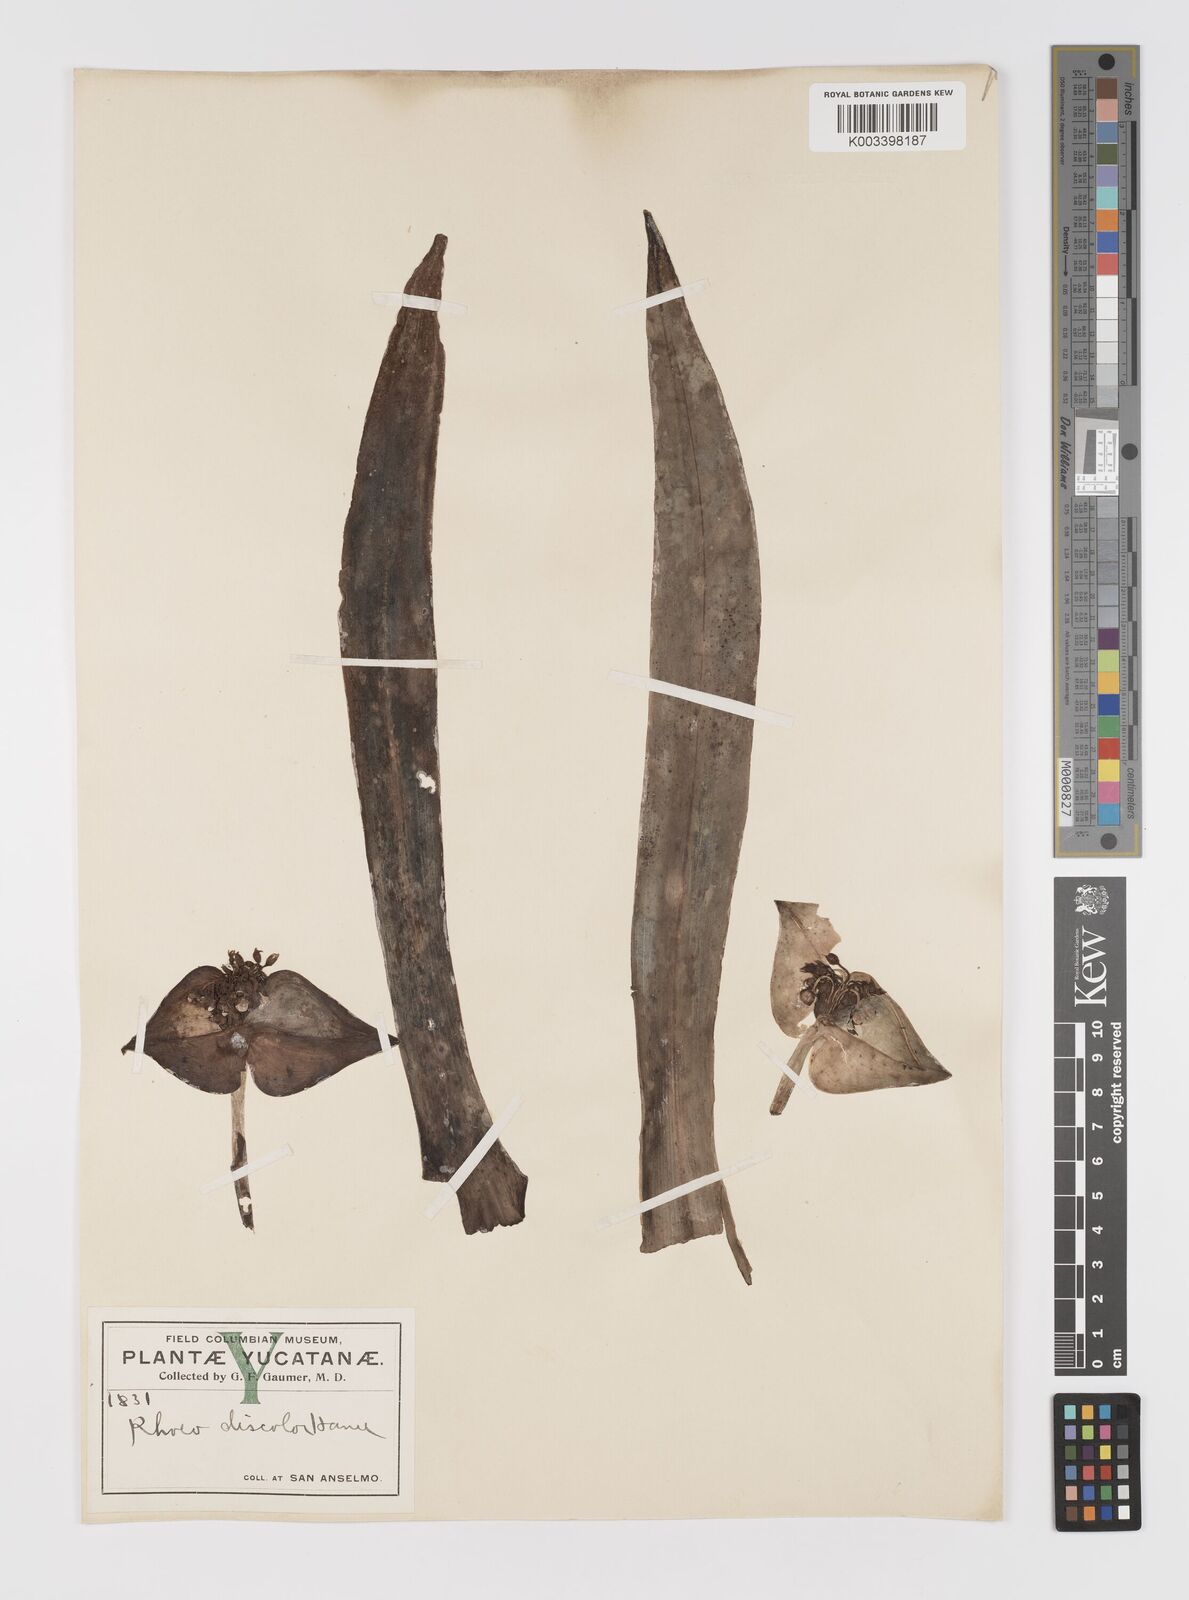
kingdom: Plantae
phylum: Tracheophyta
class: Liliopsida
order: Commelinales
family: Commelinaceae
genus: Tradescantia
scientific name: Tradescantia spathacea
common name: Boatlily
